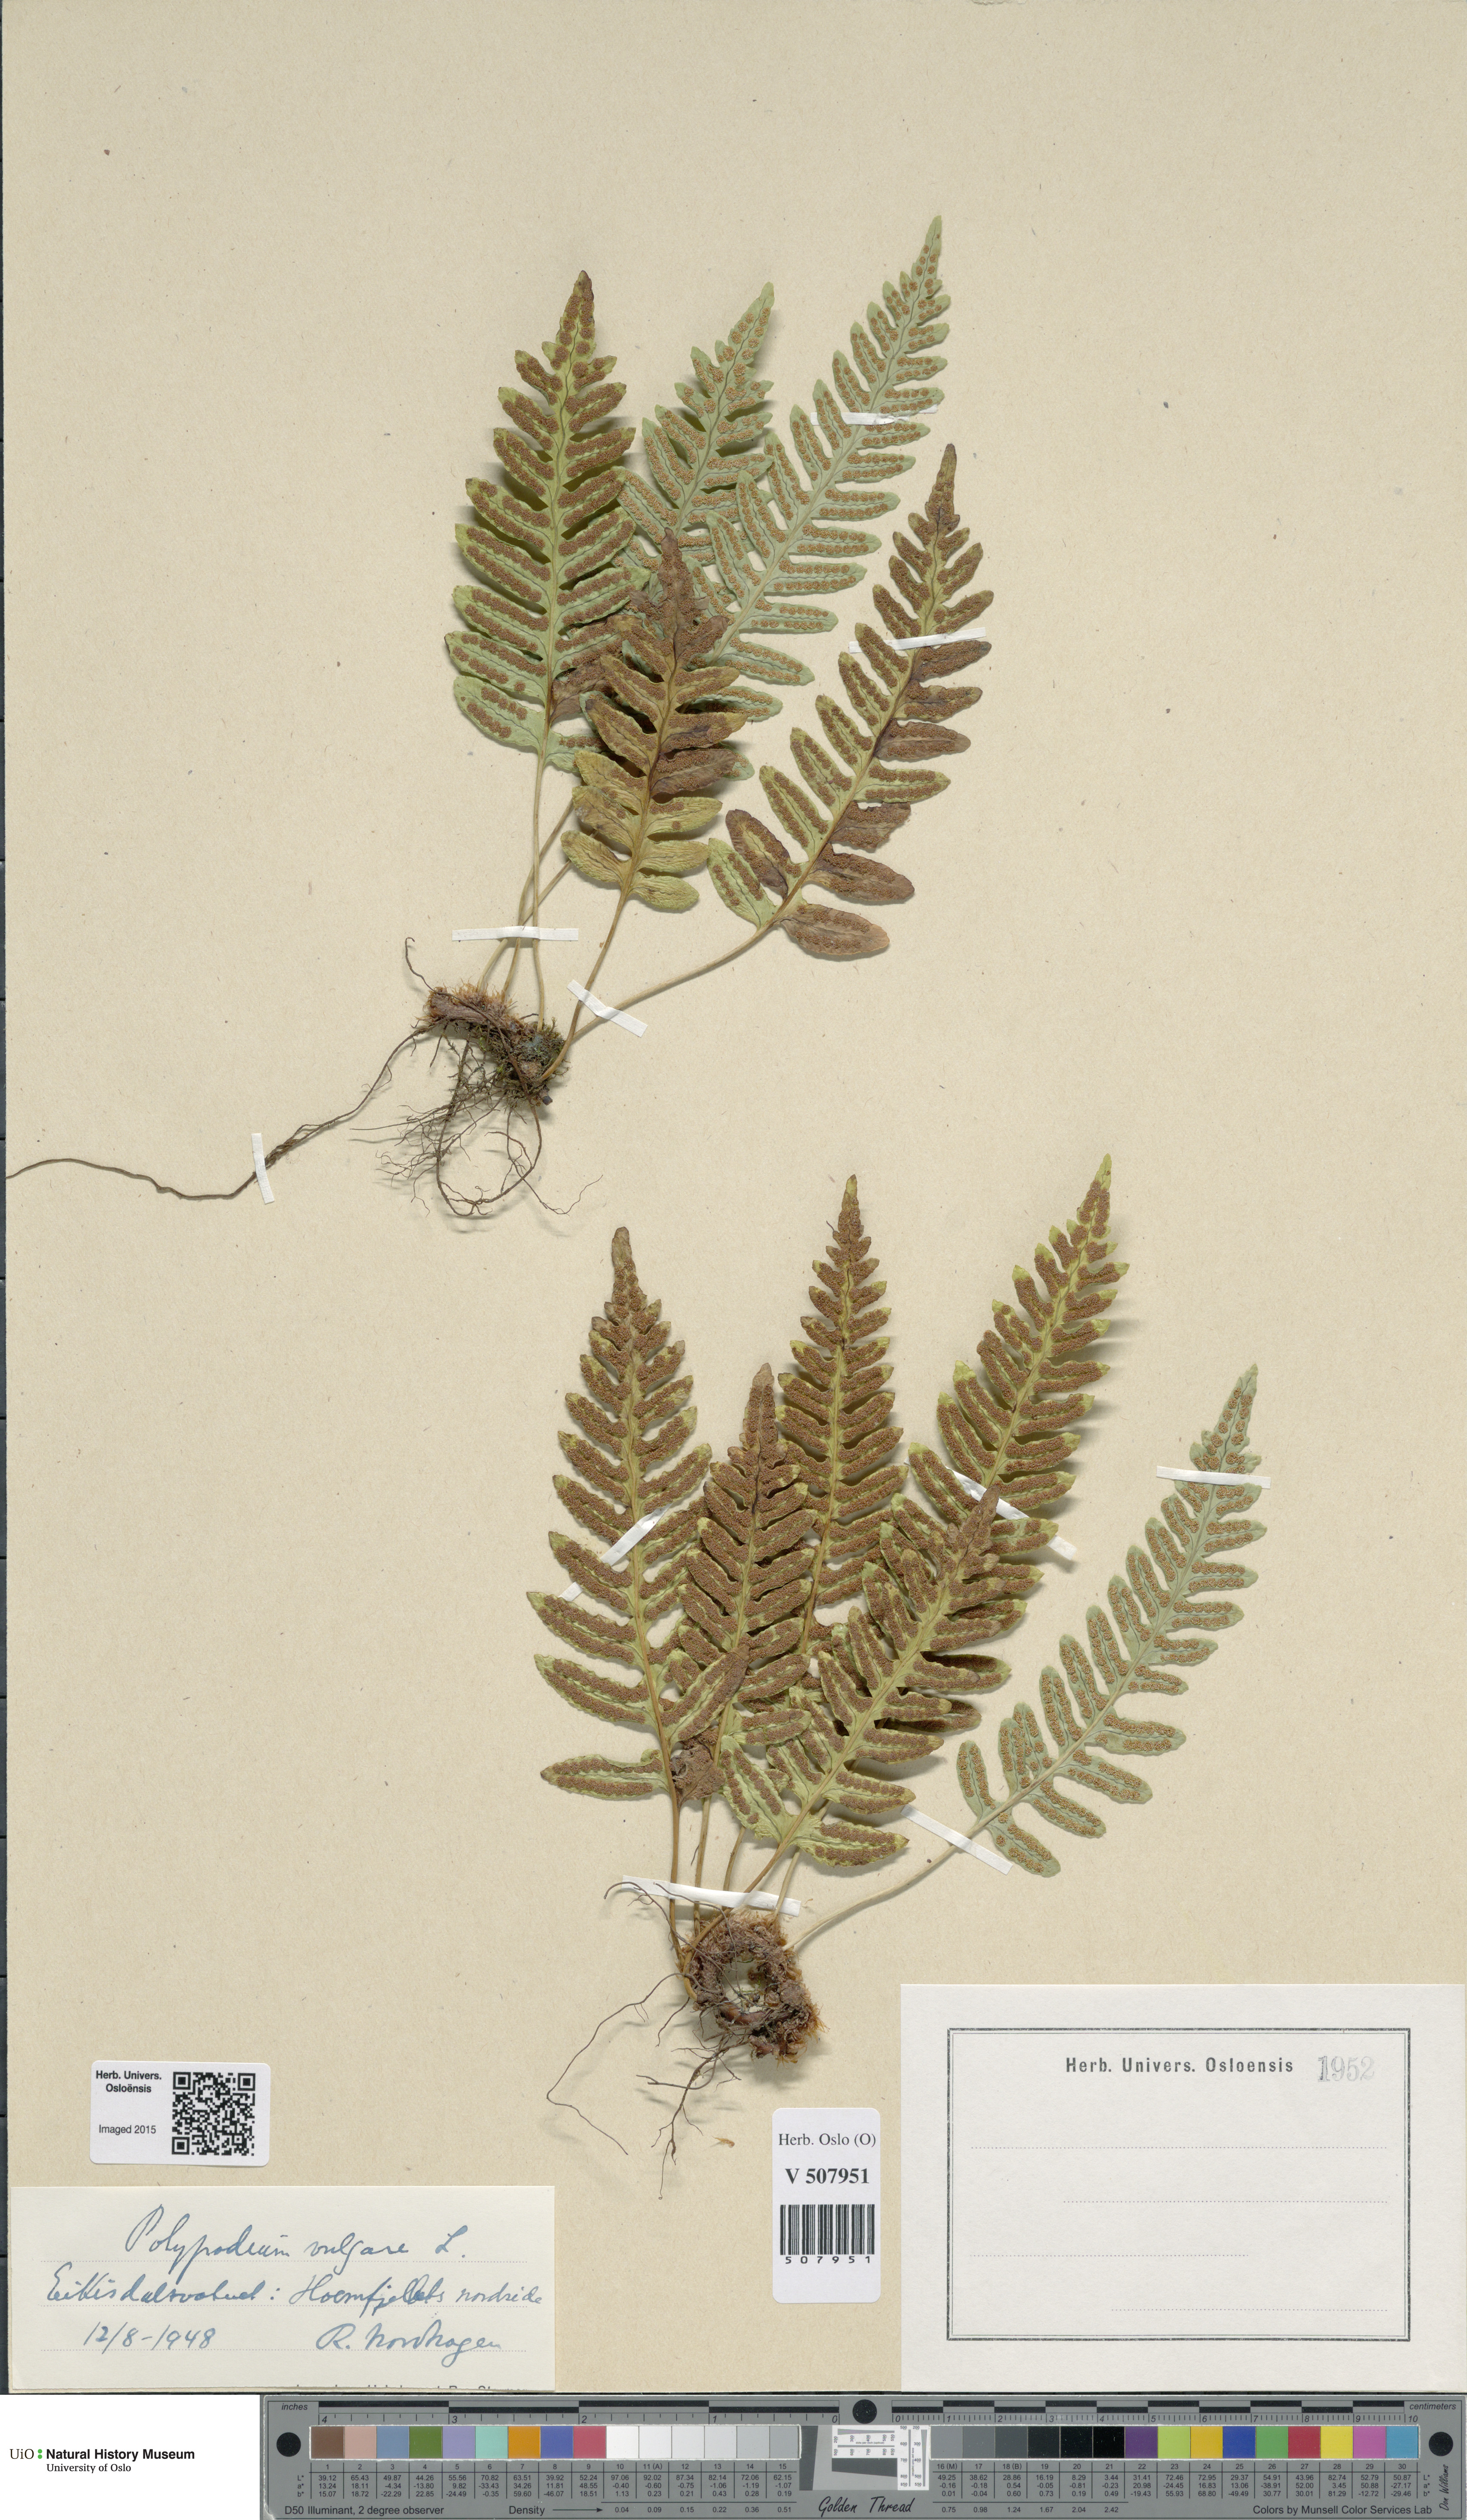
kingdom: Plantae
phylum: Tracheophyta
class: Polypodiopsida
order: Polypodiales
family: Polypodiaceae
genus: Polypodium
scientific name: Polypodium vulgare
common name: Common polypody
